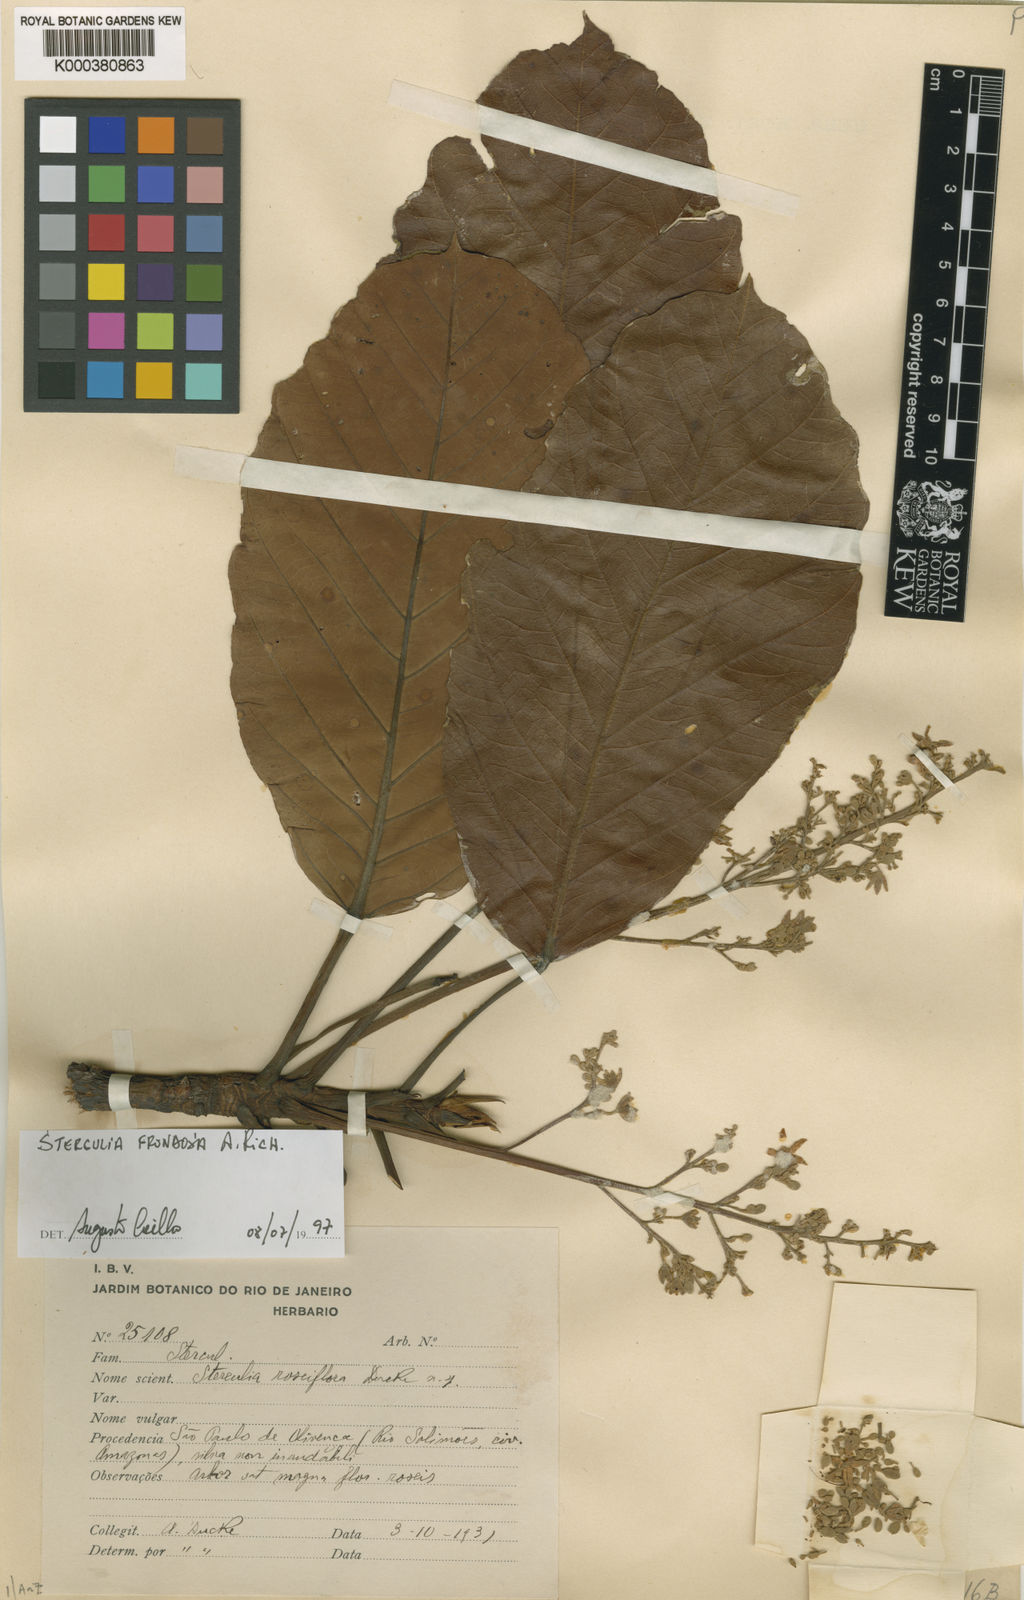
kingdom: Plantae
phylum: Tracheophyta
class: Magnoliopsida
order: Malvales
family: Malvaceae
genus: Sterculia
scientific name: Sterculia frondosa
